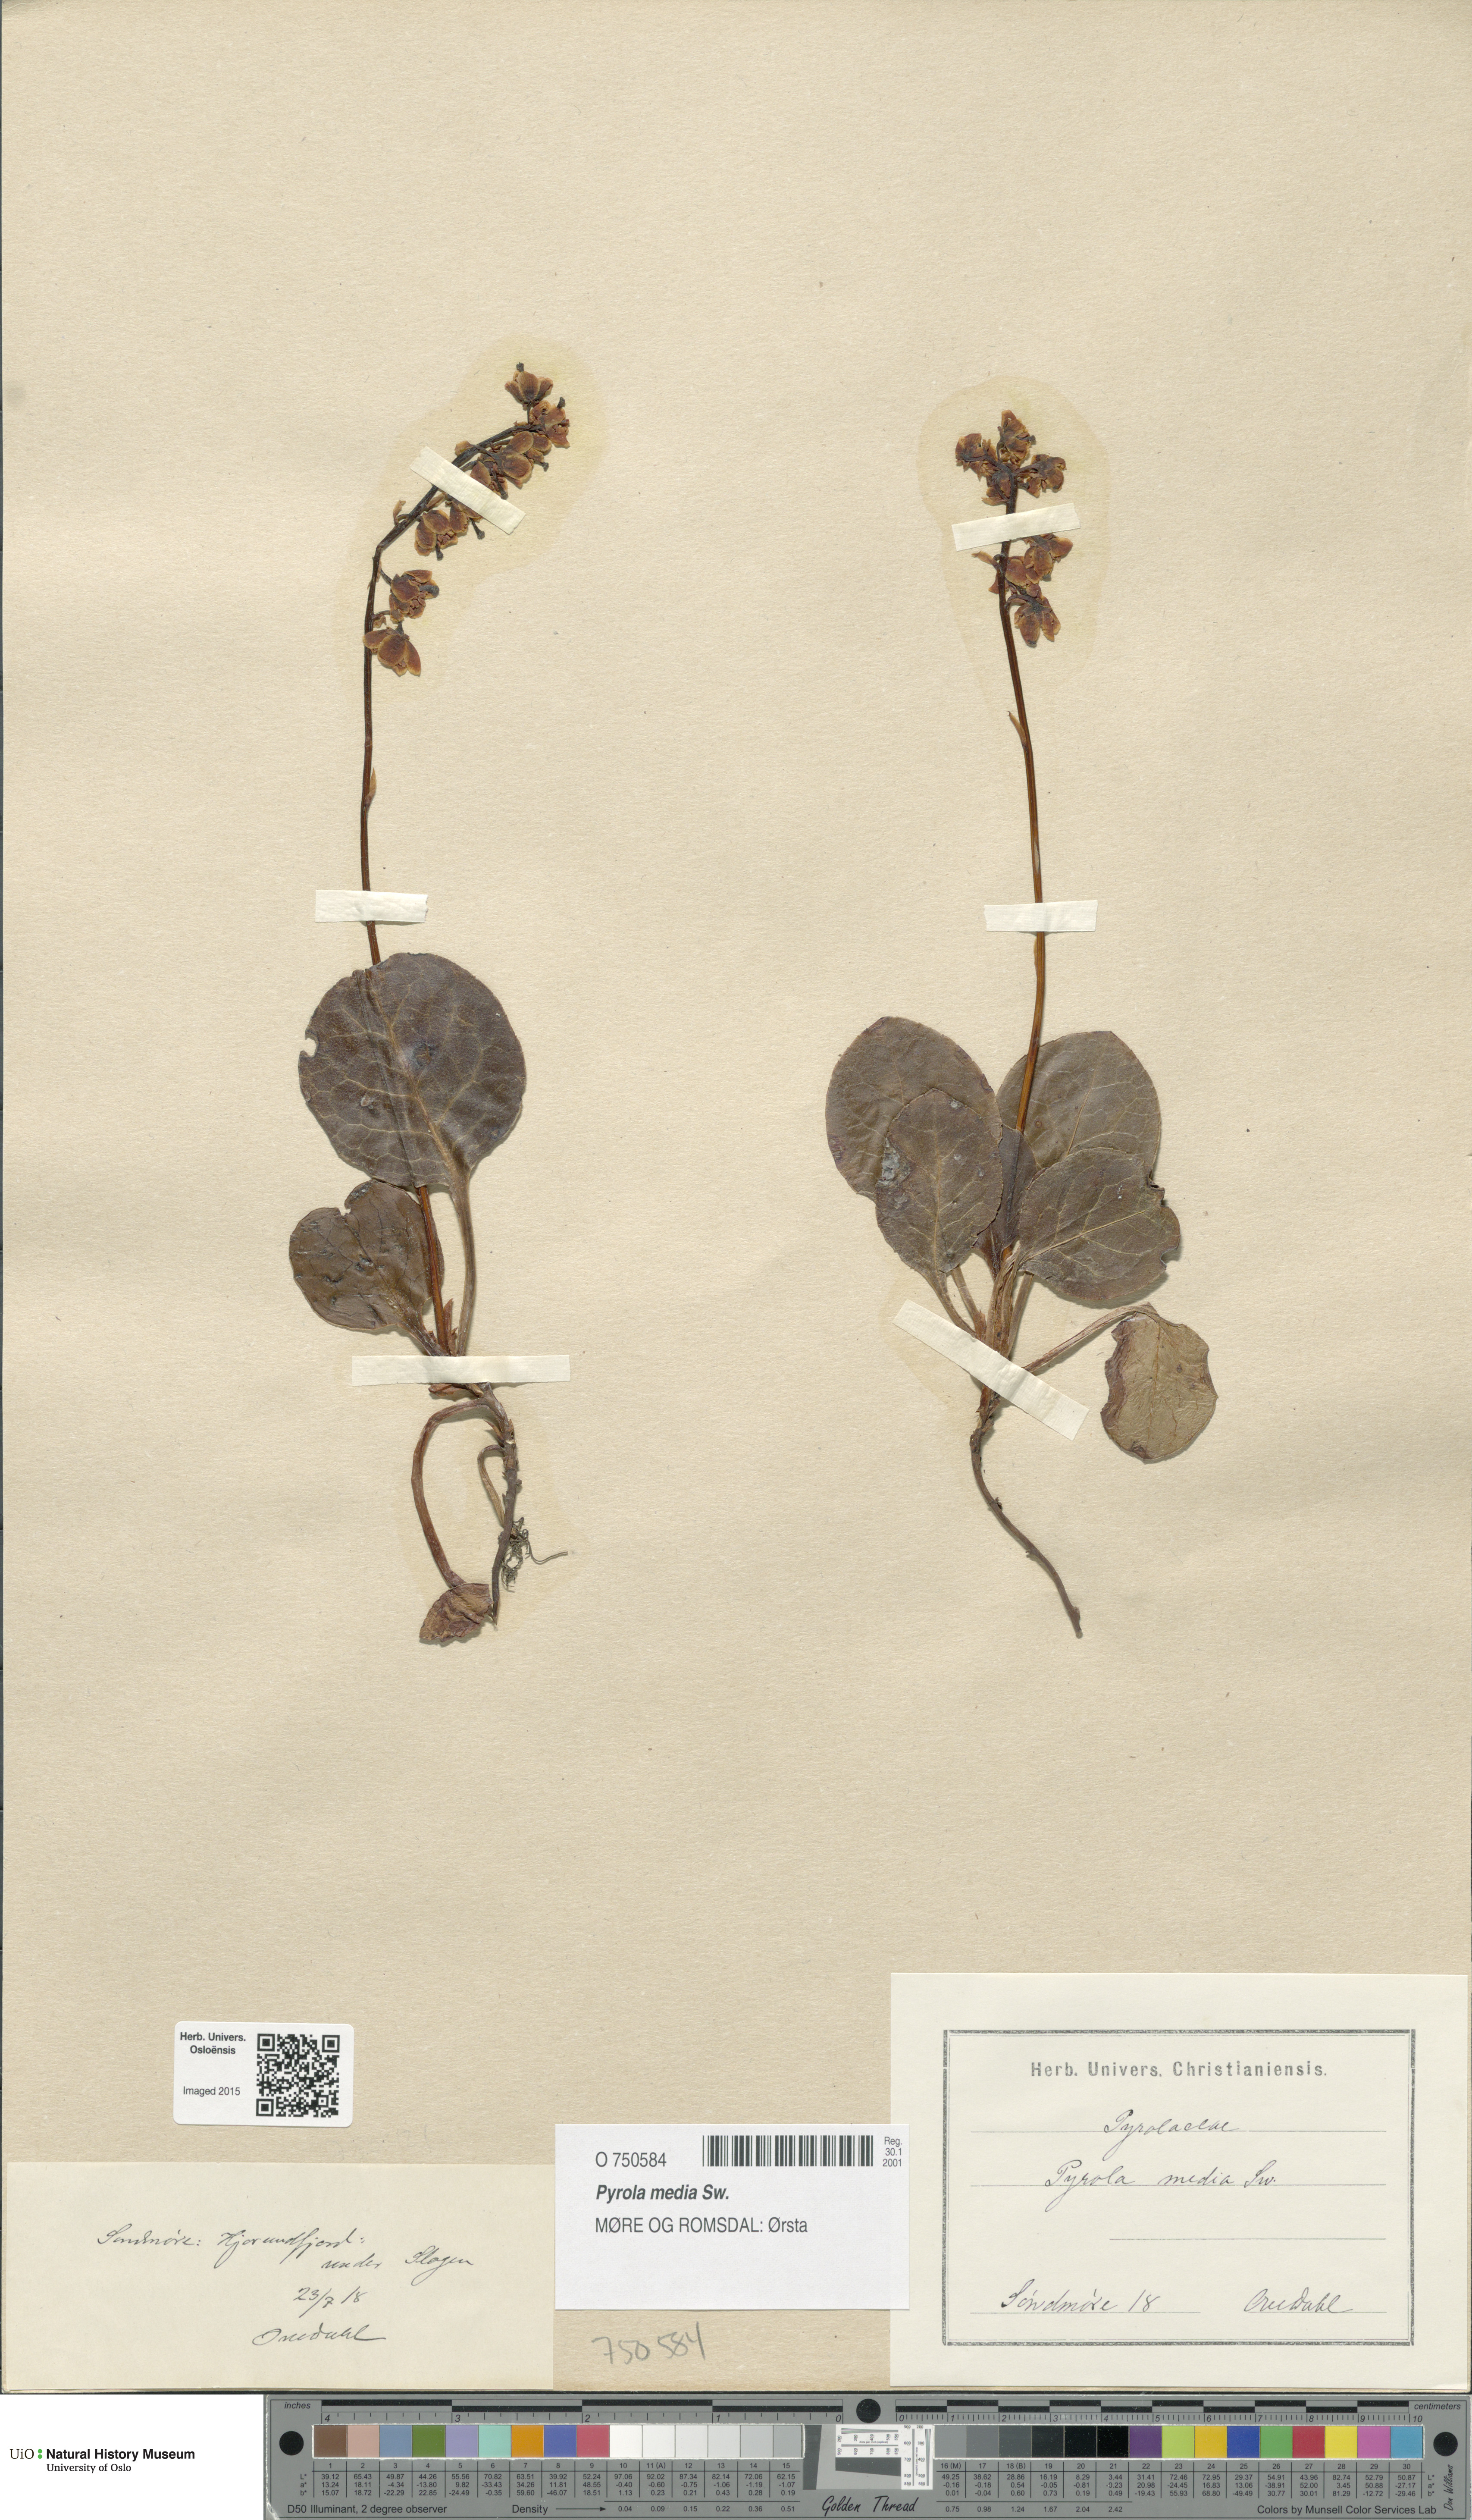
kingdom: Plantae
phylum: Tracheophyta
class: Magnoliopsida
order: Ericales
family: Ericaceae
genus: Pyrola
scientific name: Pyrola media
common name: Intermediate wintergreen
